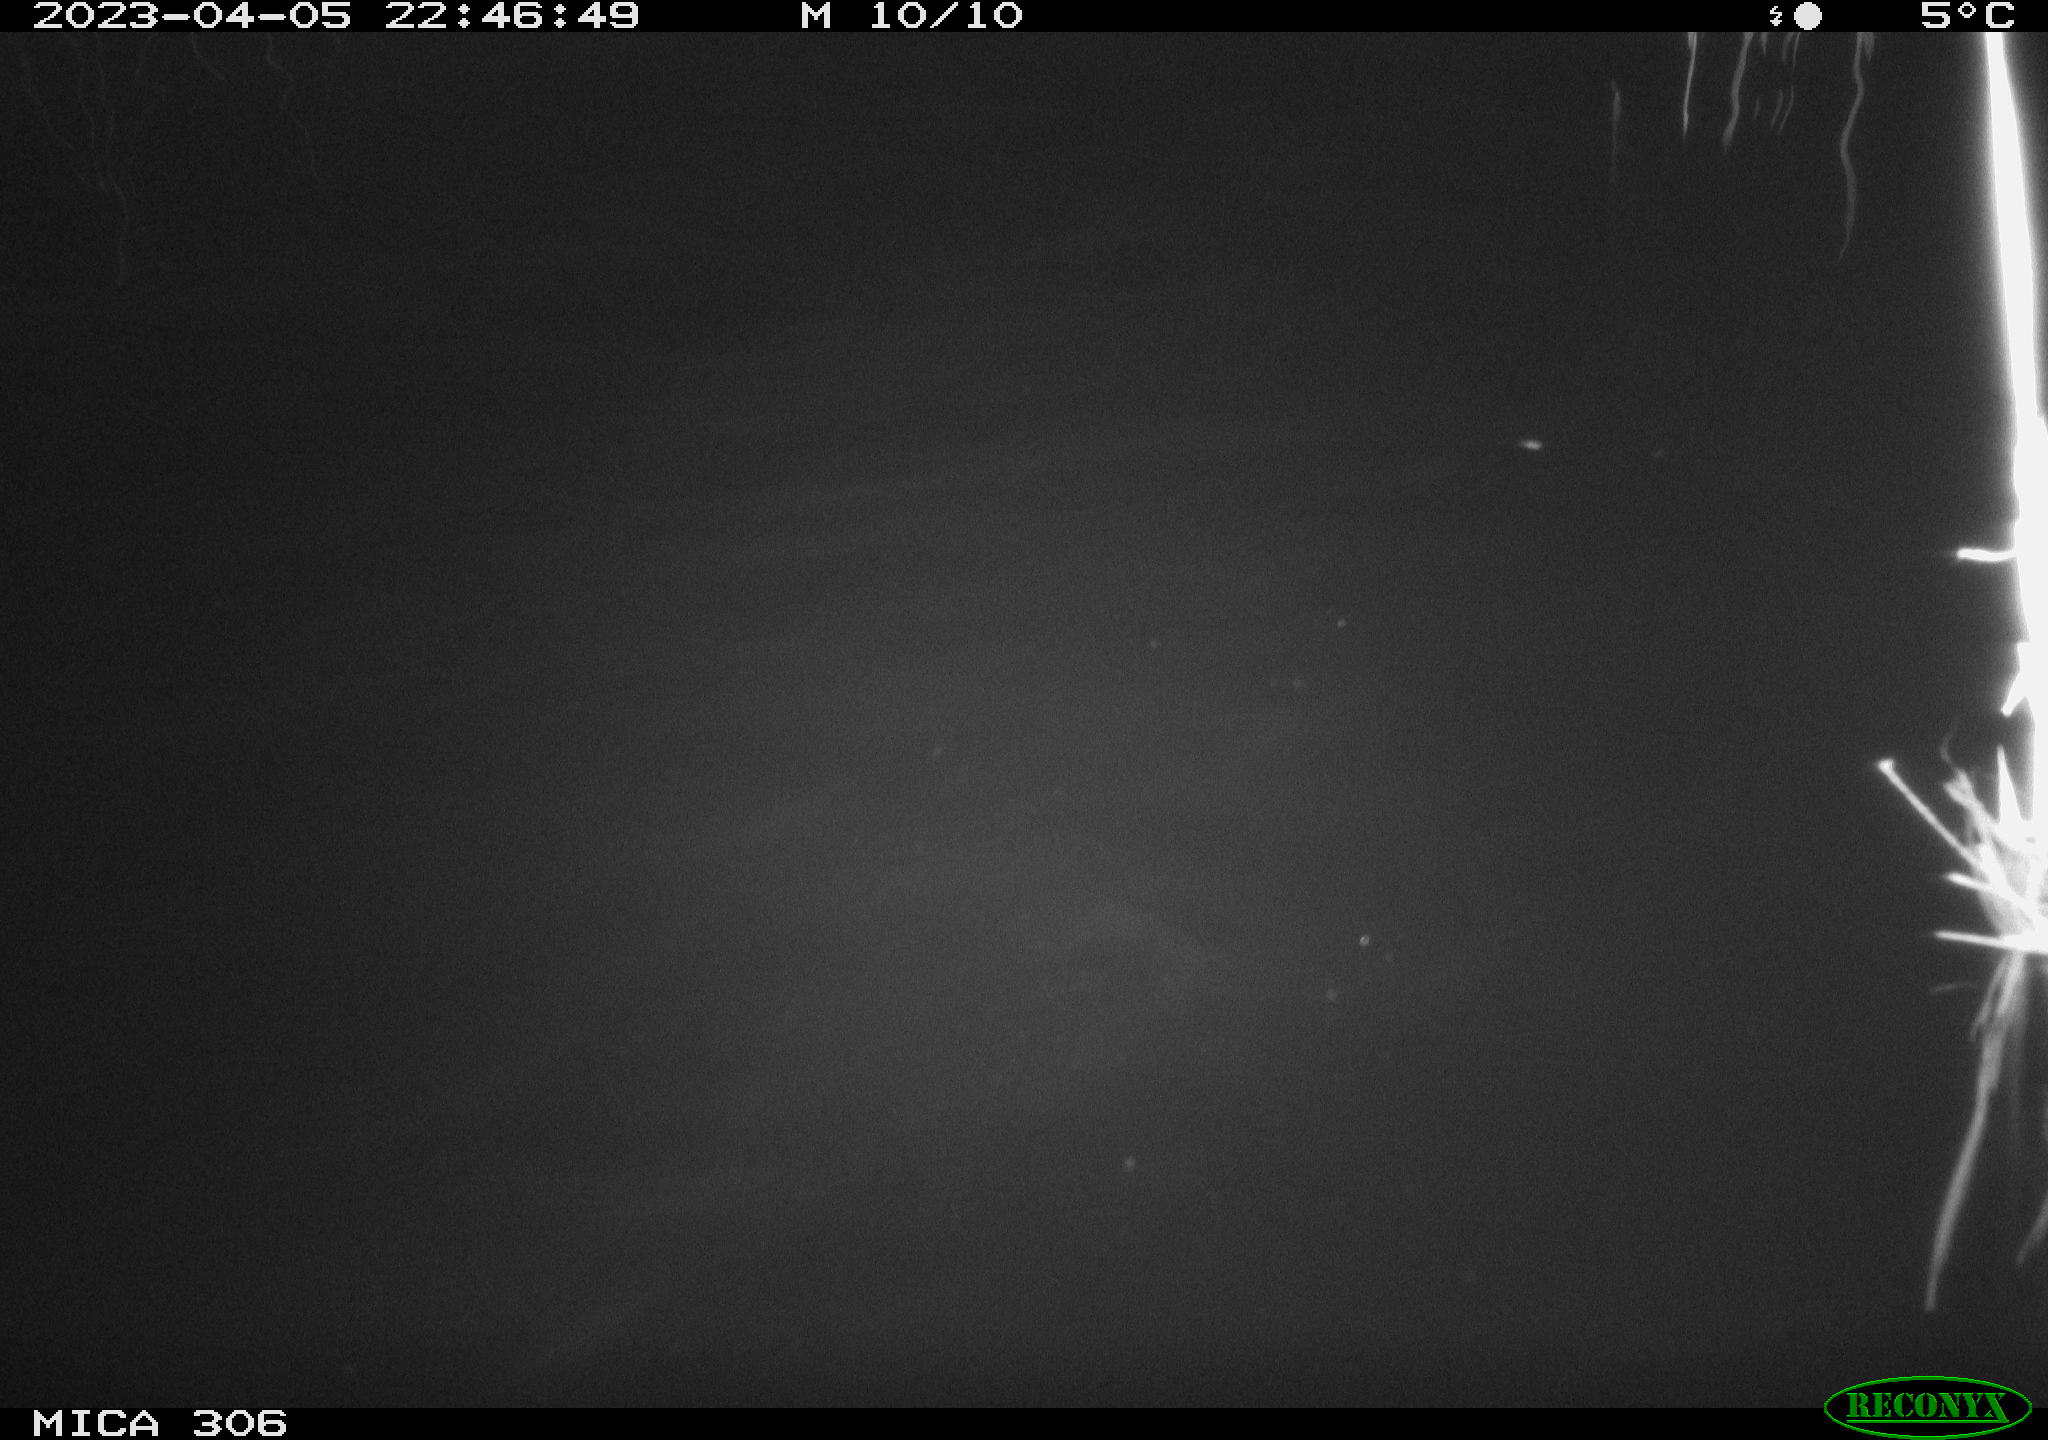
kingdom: Animalia
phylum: Chordata
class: Mammalia
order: Rodentia
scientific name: Rodentia
